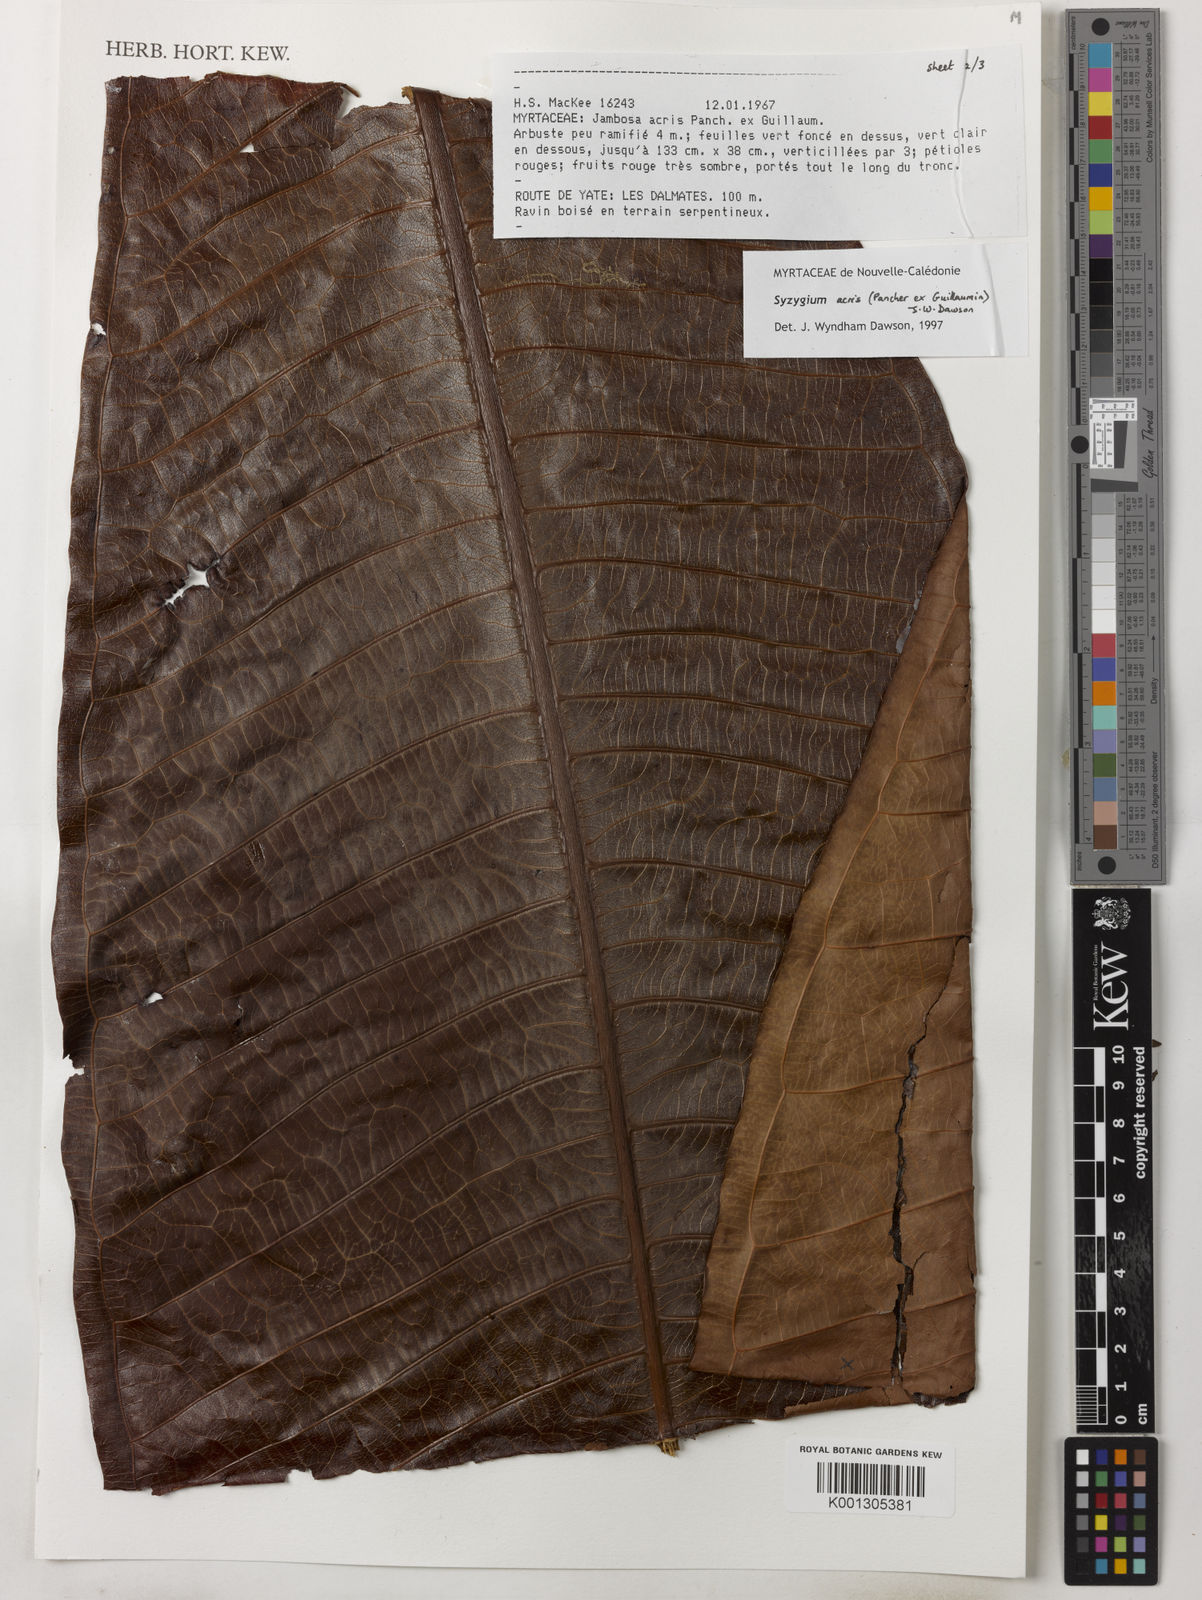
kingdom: Plantae
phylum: Tracheophyta
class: Magnoliopsida
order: Myrtales
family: Myrtaceae
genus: Syzygium
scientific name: Syzygium
